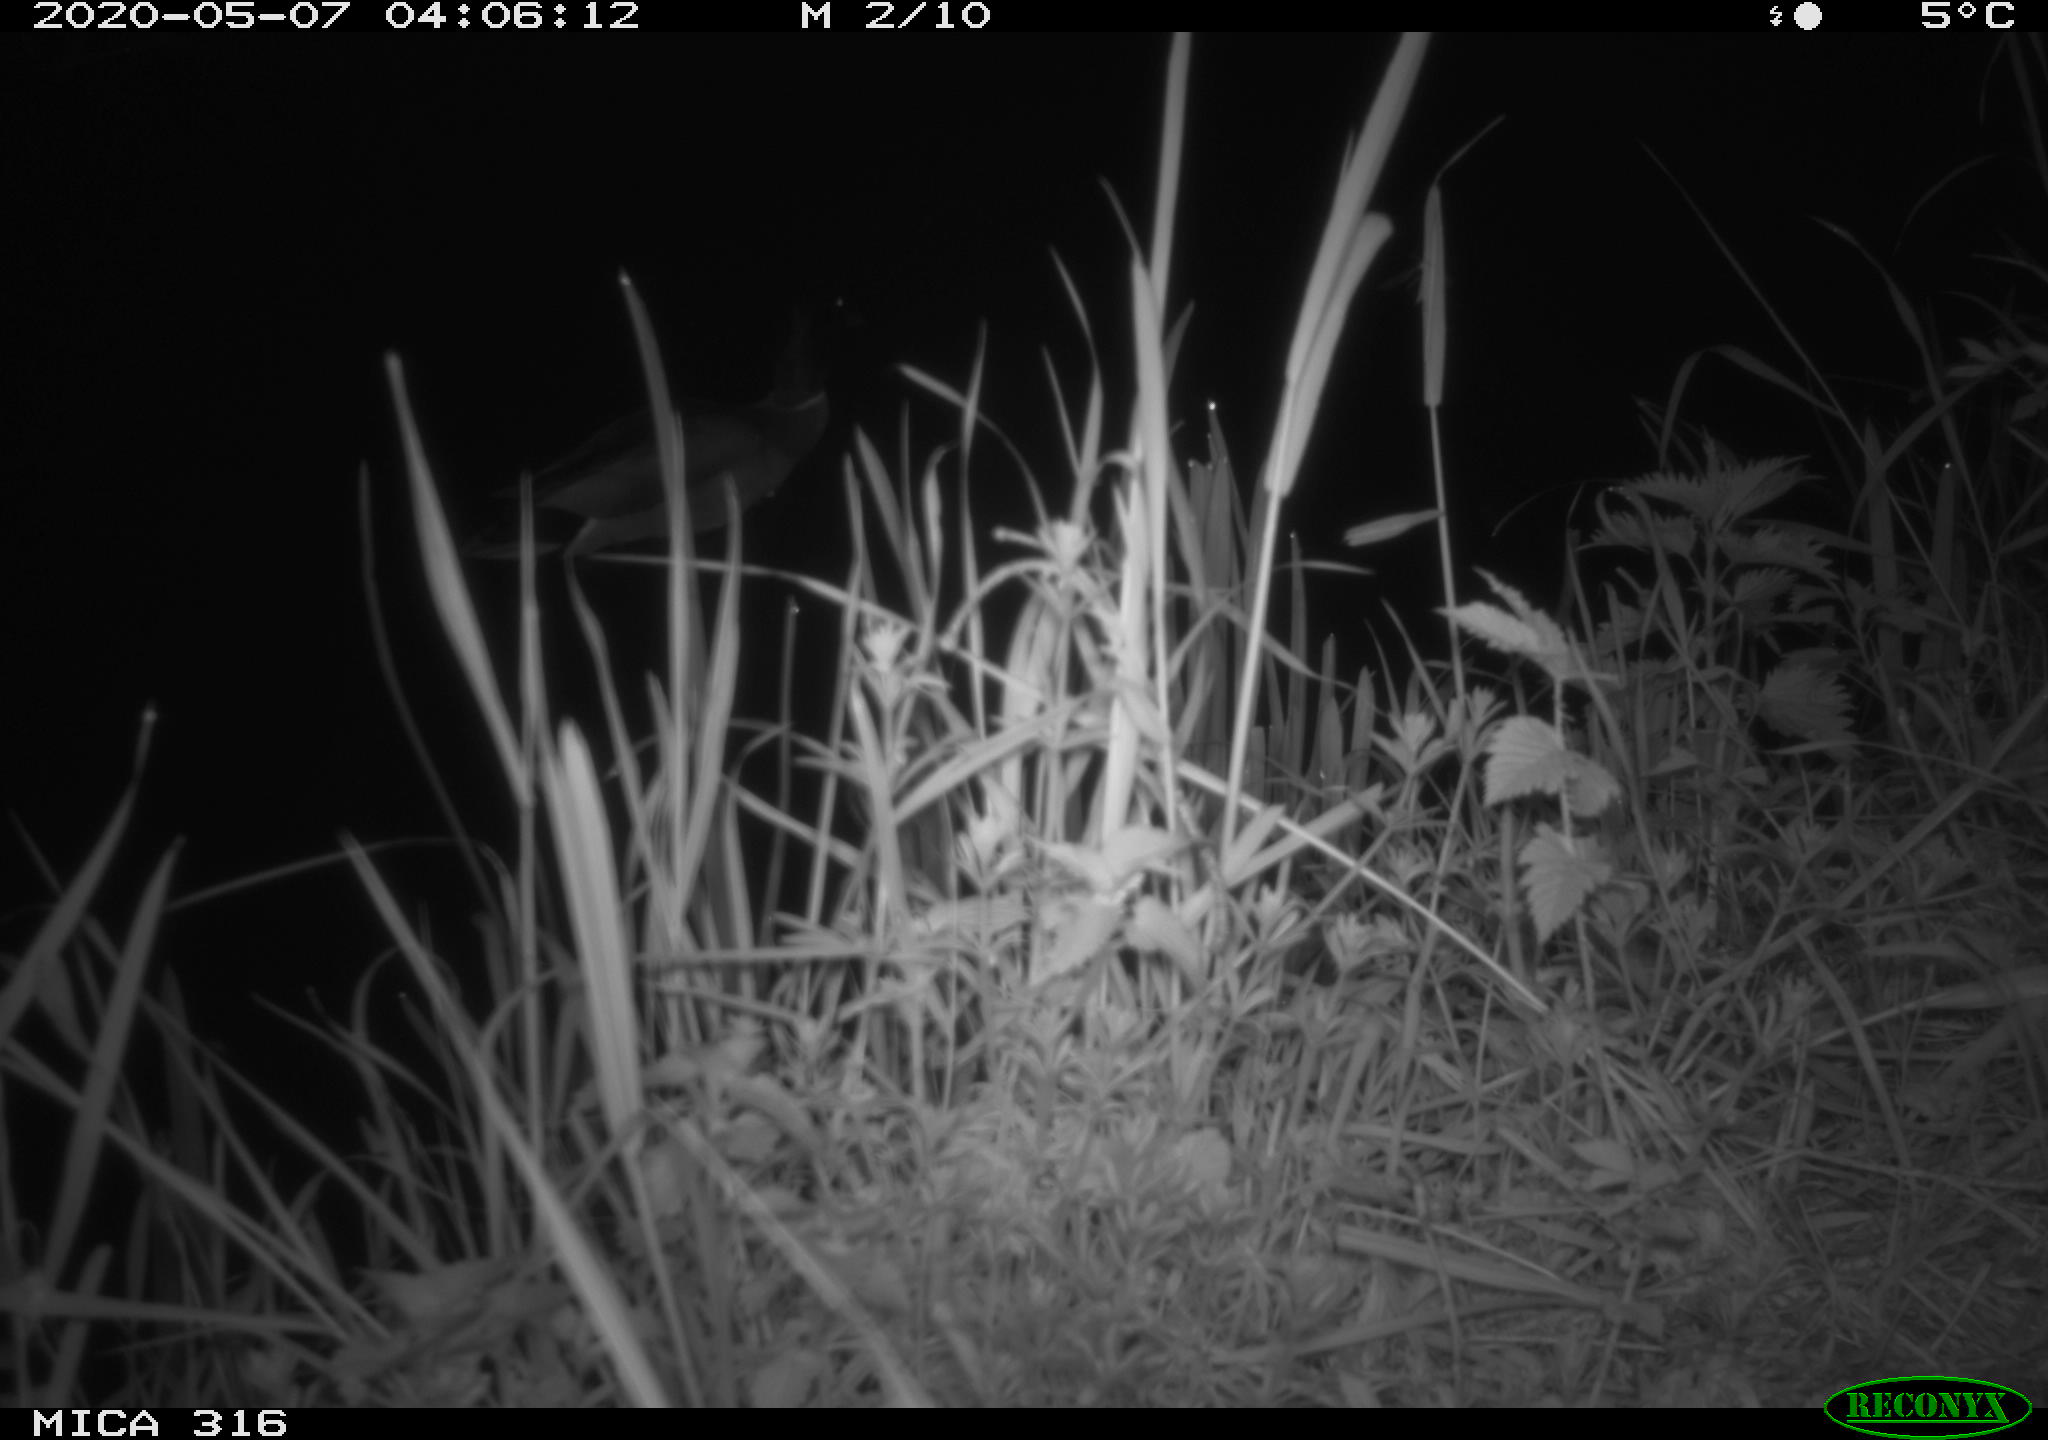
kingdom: Animalia
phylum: Chordata
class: Aves
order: Anseriformes
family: Anatidae
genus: Anas
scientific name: Anas platyrhynchos
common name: Mallard
